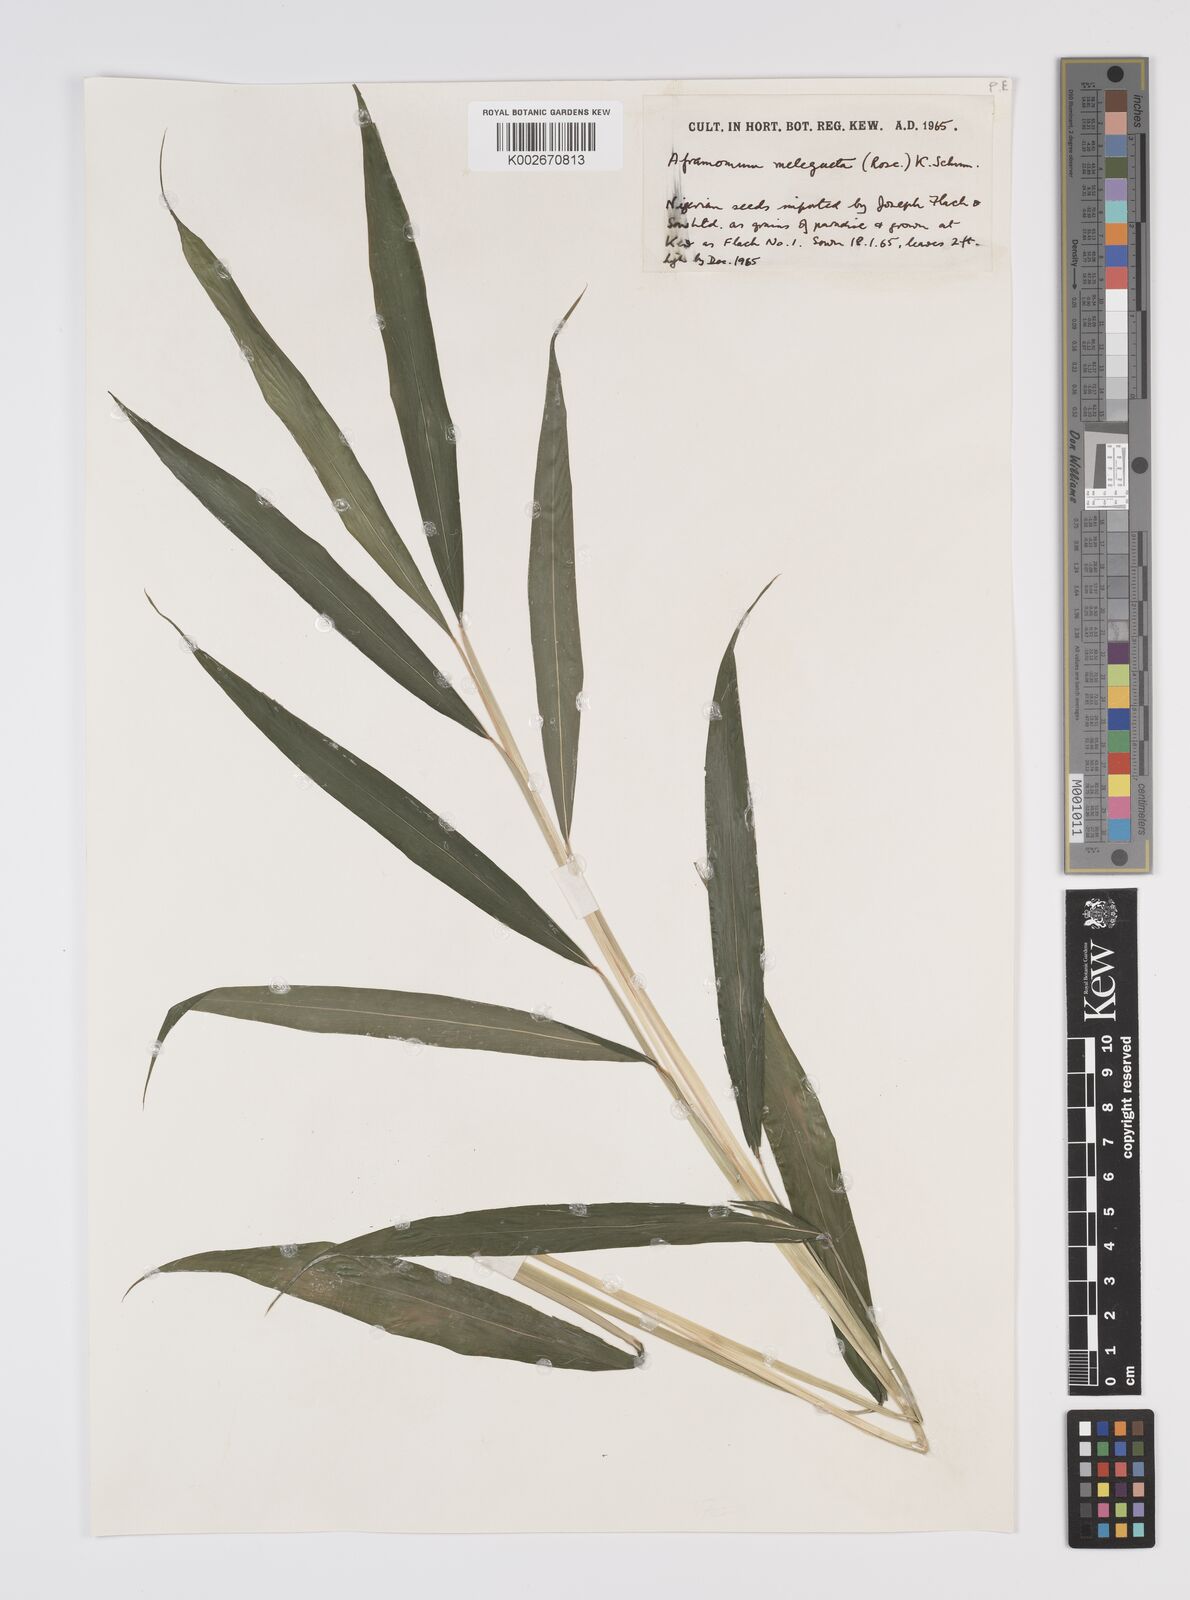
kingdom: Plantae
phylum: Tracheophyta
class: Liliopsida
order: Zingiberales
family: Zingiberaceae
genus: Aframomum
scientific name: Aframomum melegueta
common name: Grains of paradise
